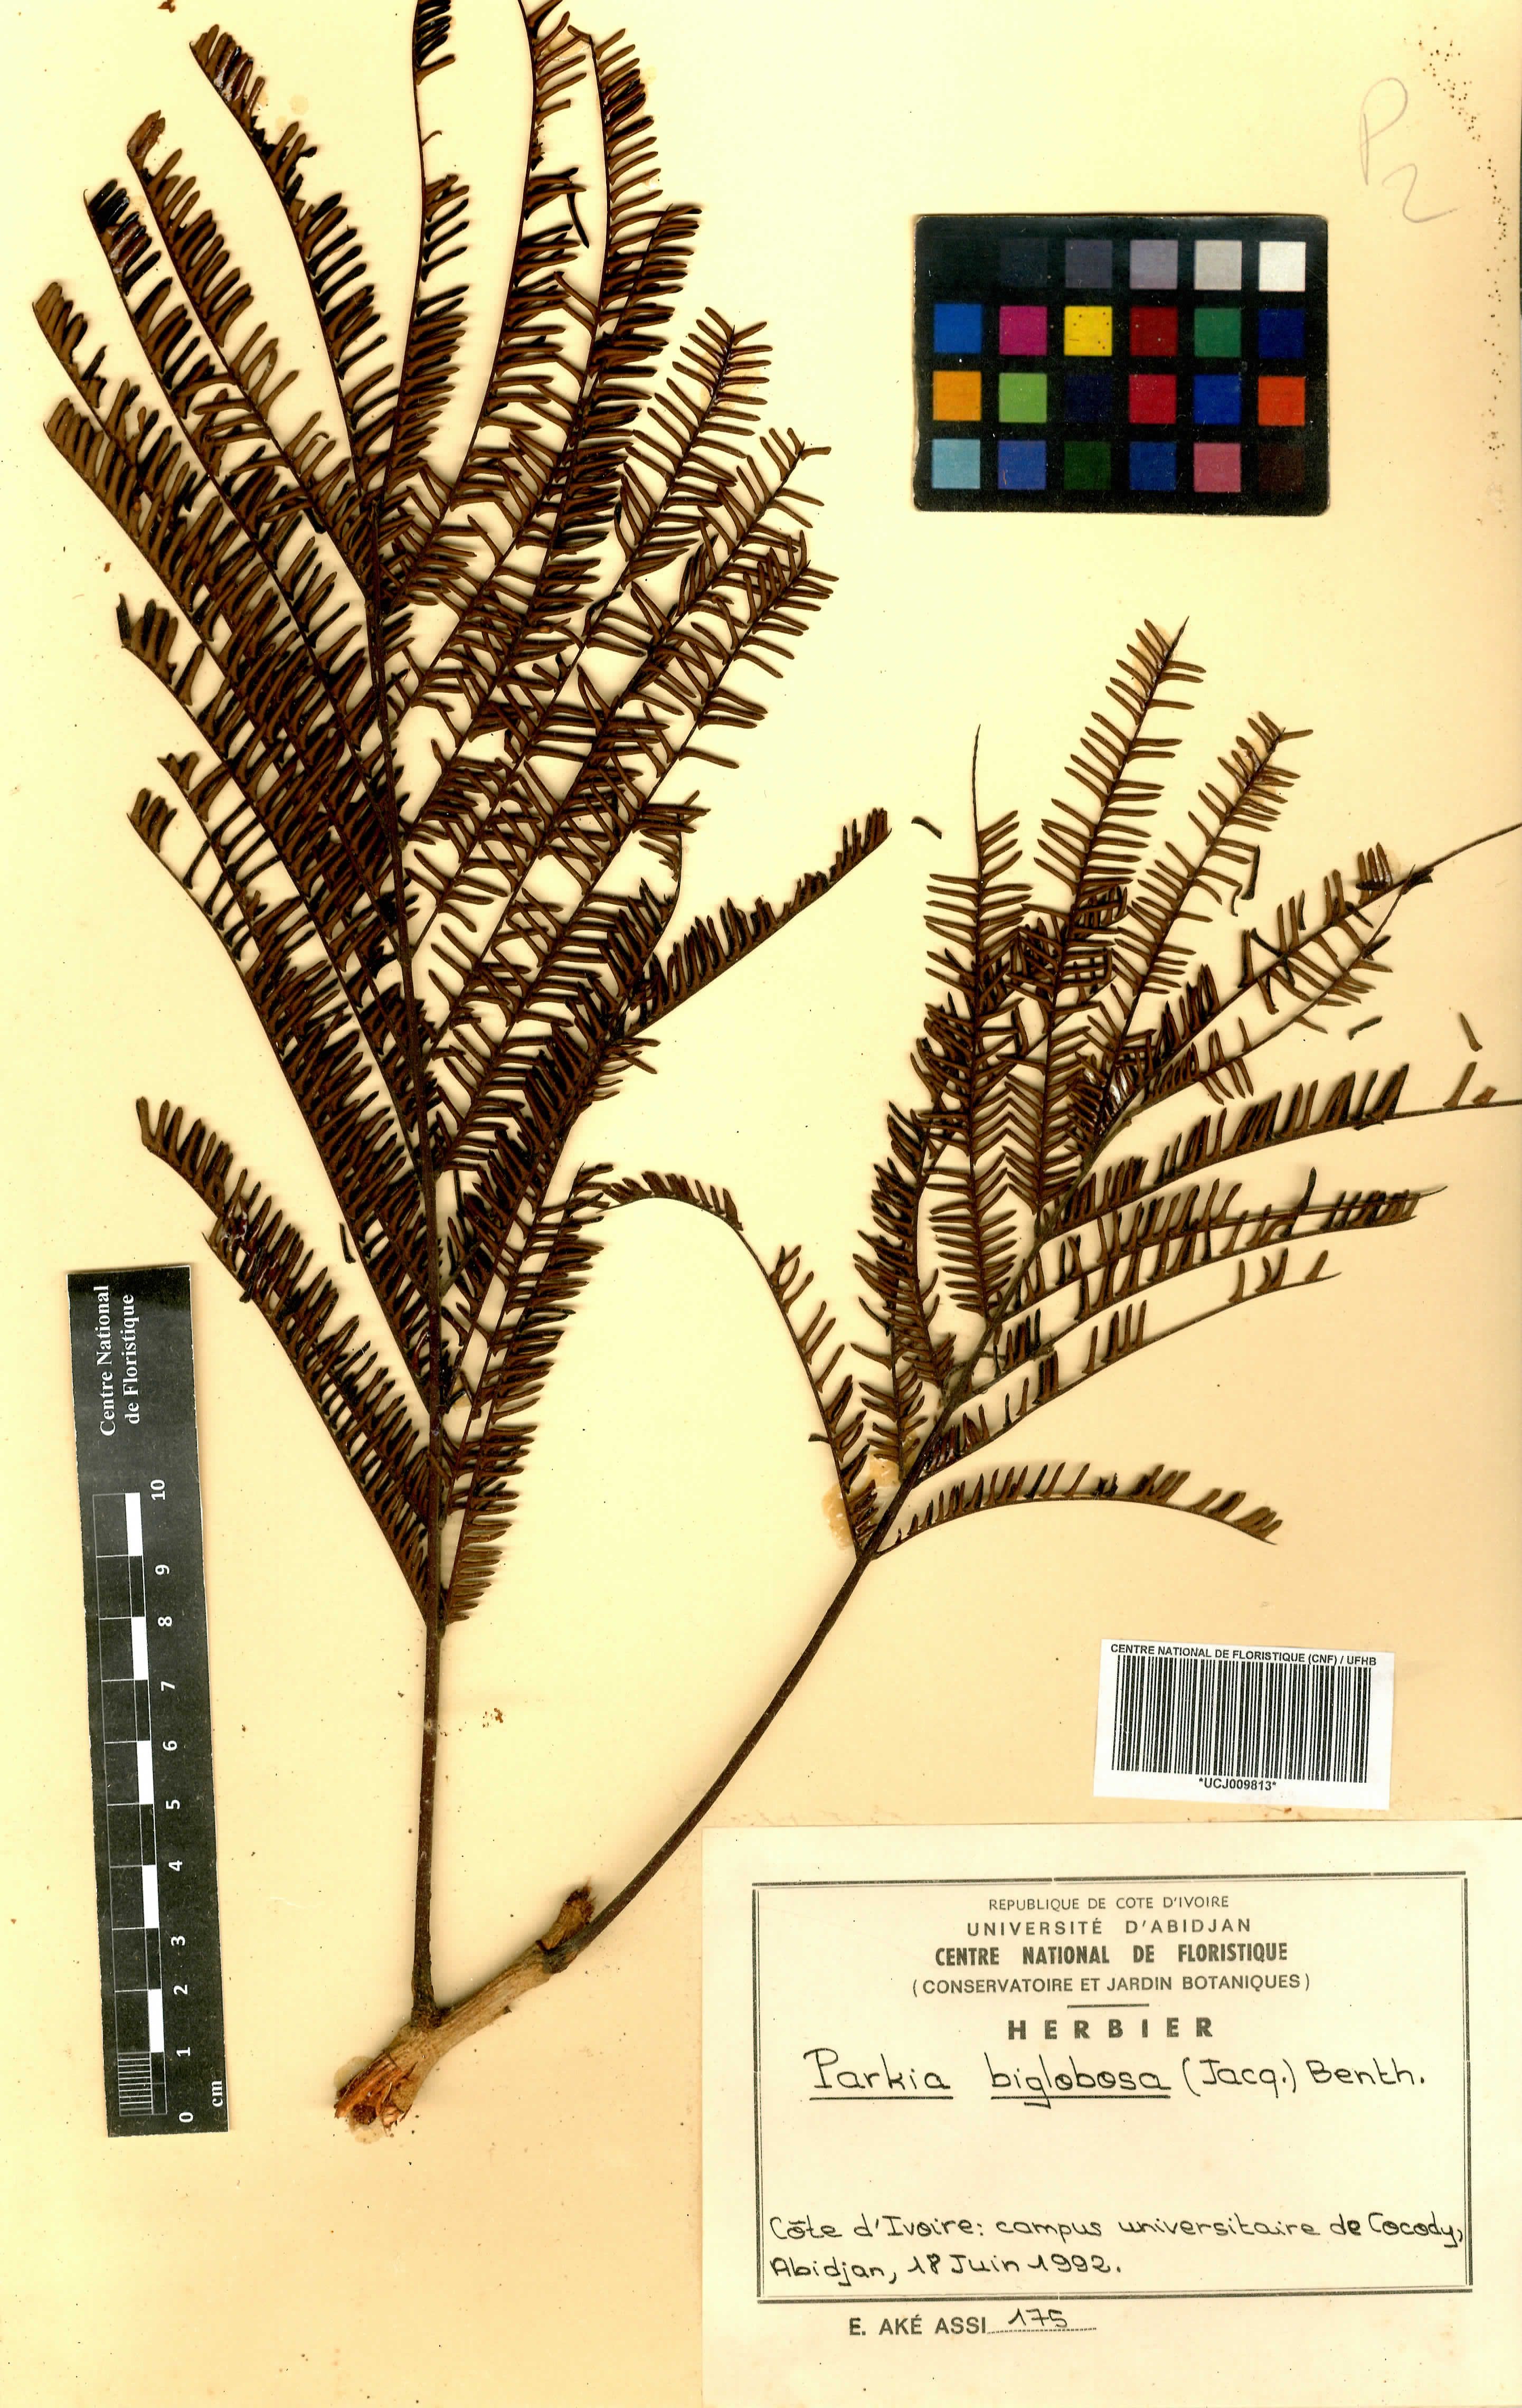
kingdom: Plantae
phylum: Tracheophyta
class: Magnoliopsida
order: Fabales
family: Fabaceae
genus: Parkia
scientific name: Parkia timoriana
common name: Legume
